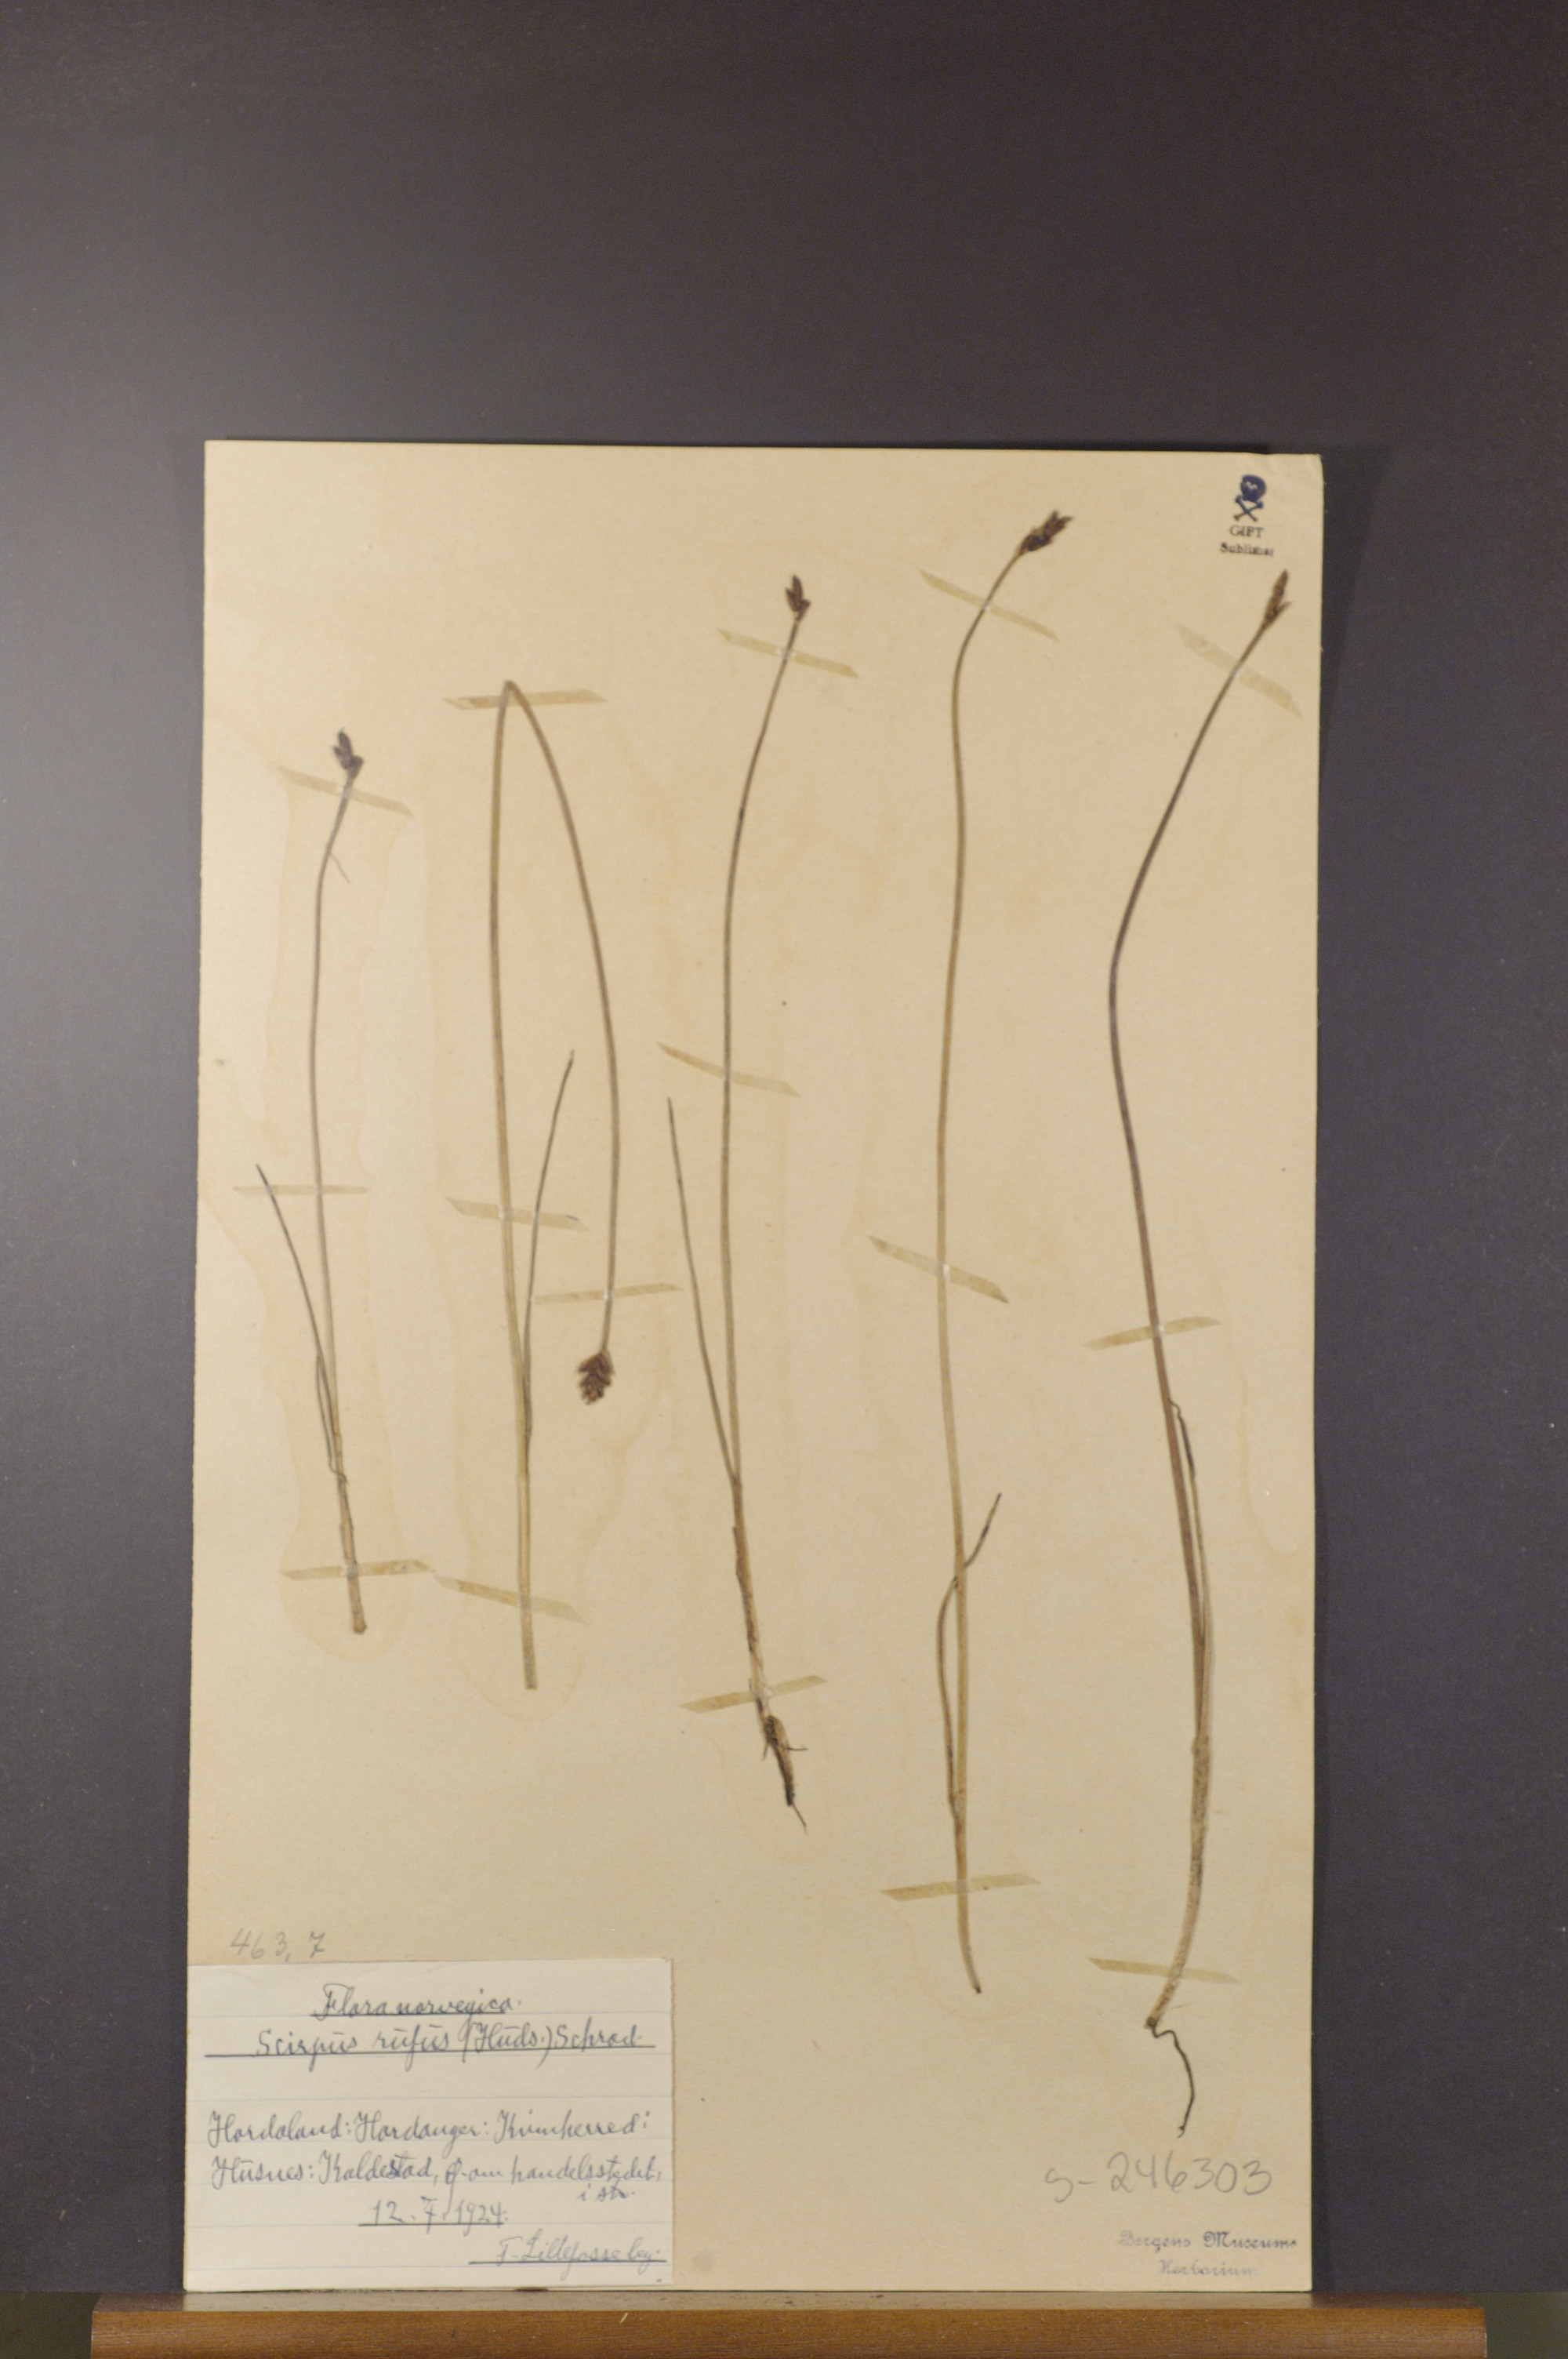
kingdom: Plantae
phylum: Tracheophyta
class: Liliopsida
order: Poales
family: Cyperaceae
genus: Blysmus
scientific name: Blysmus rufus
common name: Saltmarsh flat-sedge
